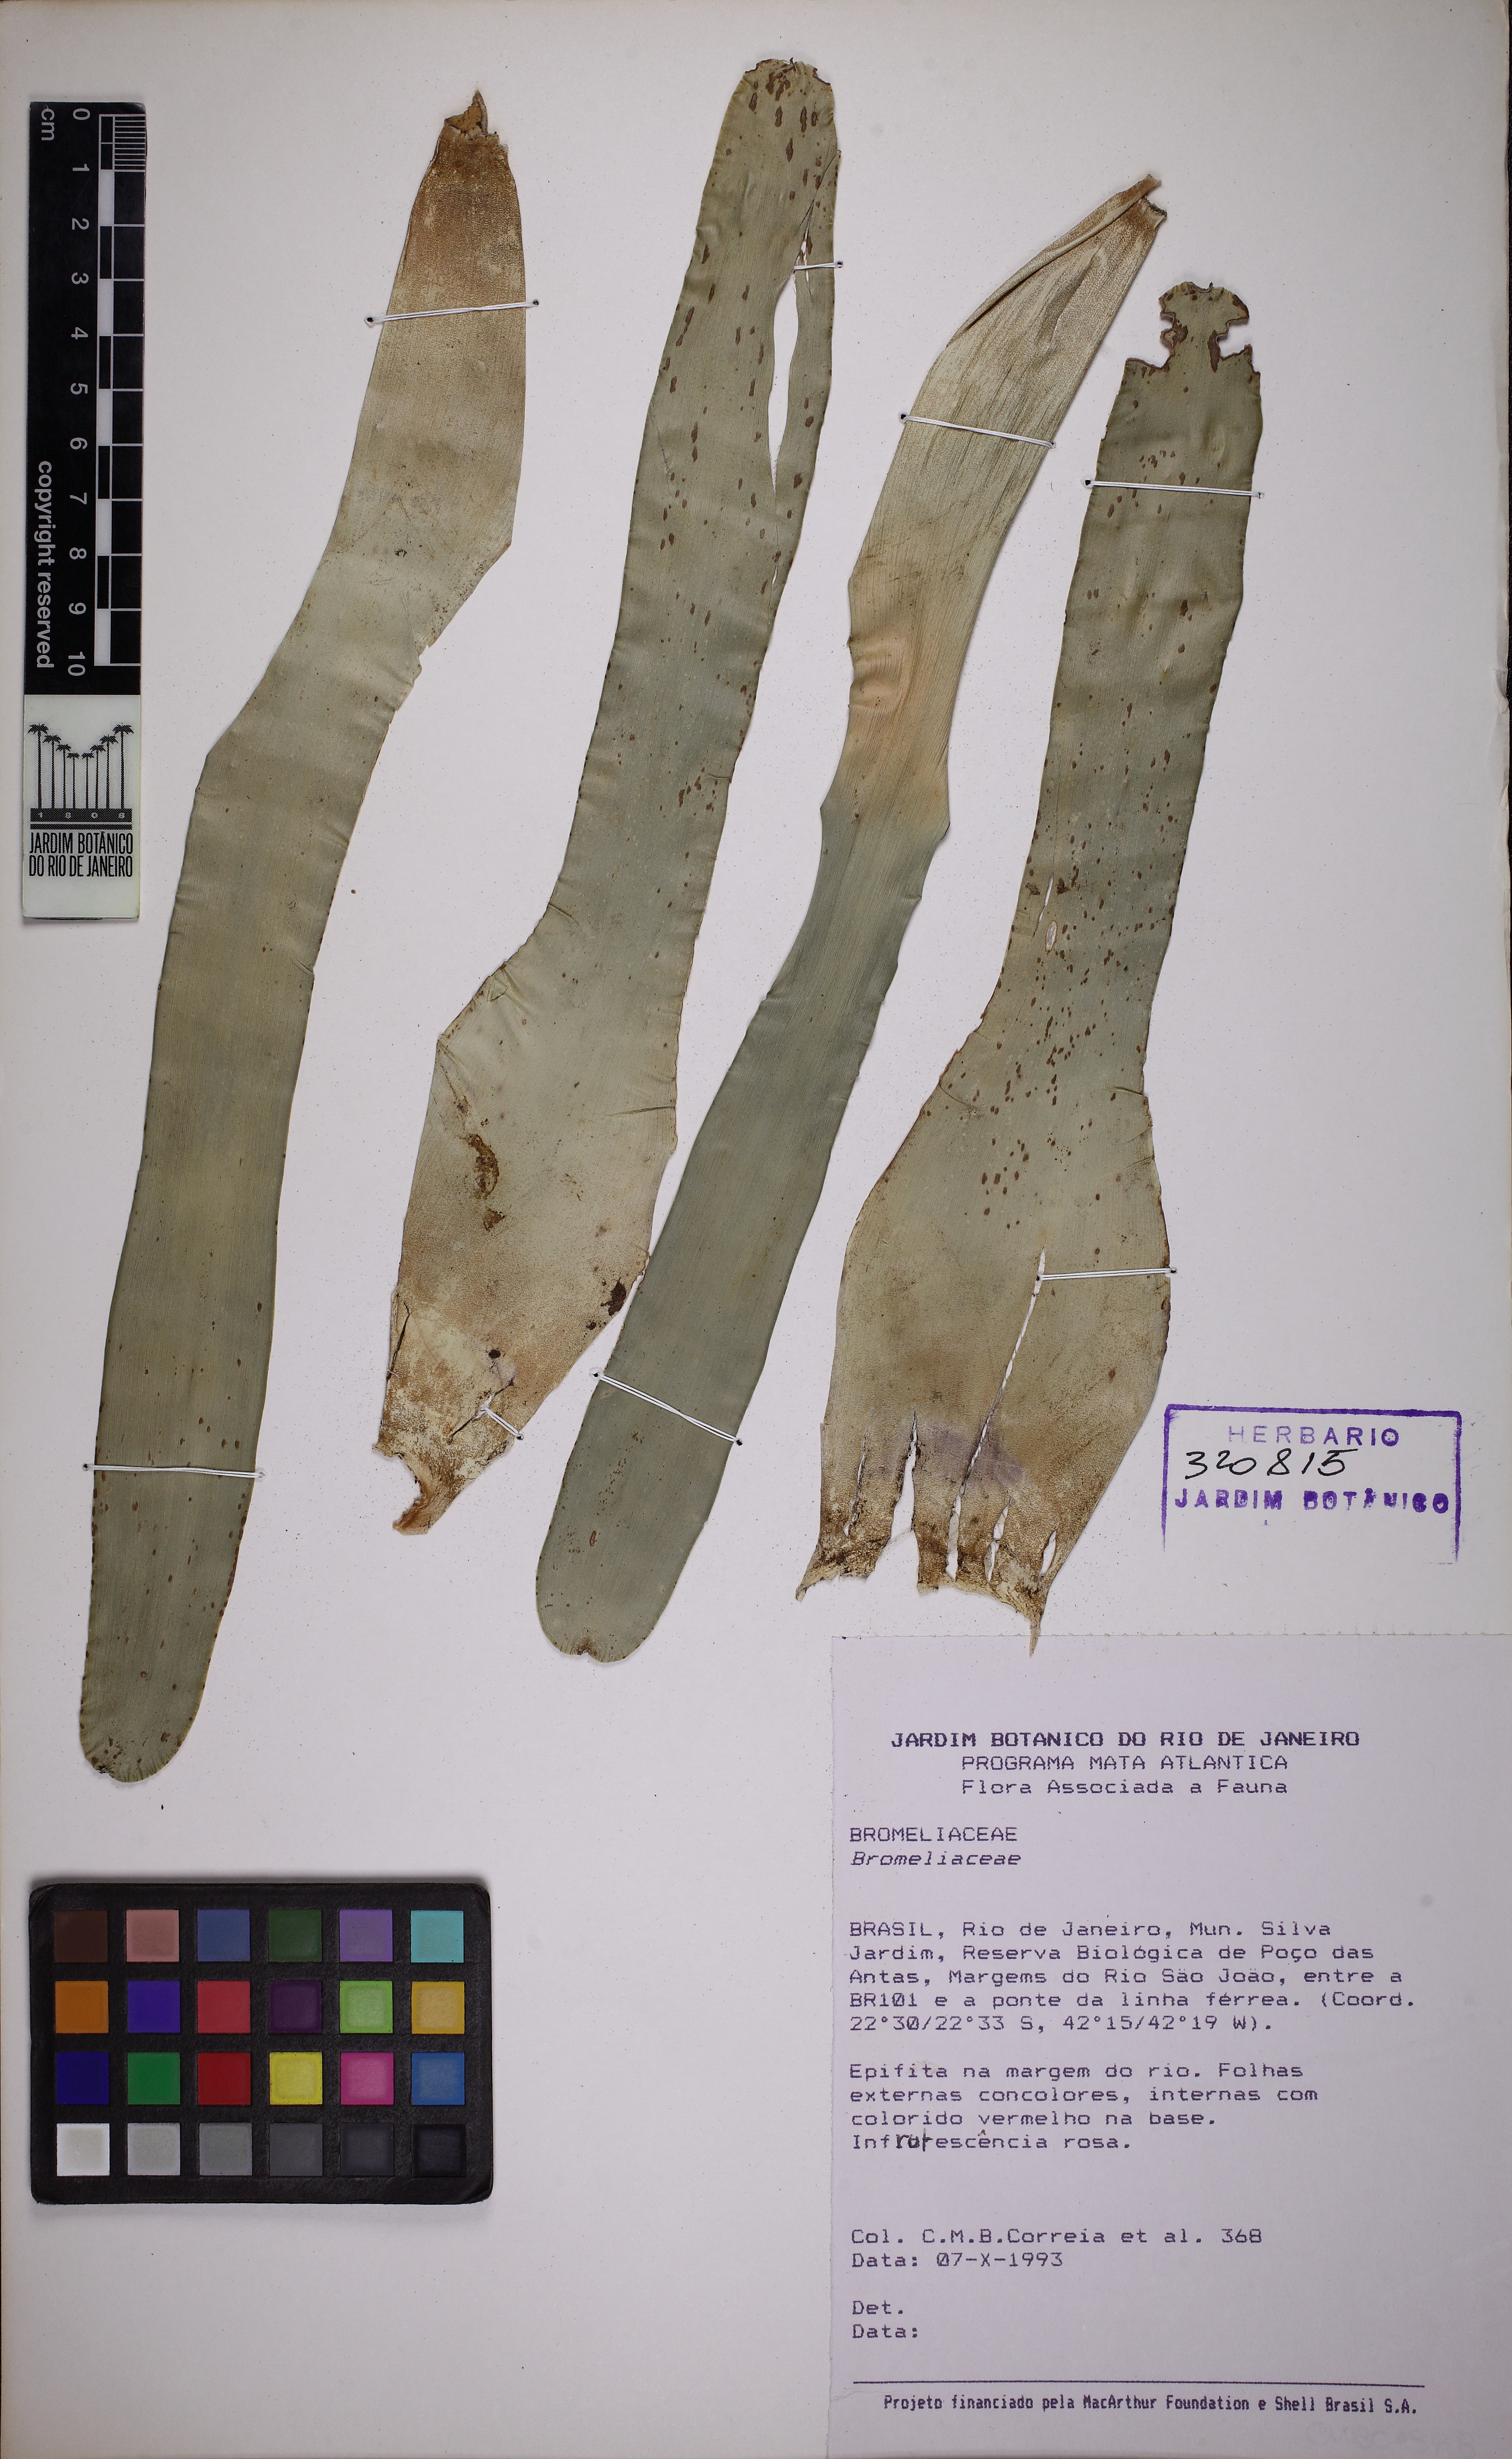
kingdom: Plantae
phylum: Tracheophyta
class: Liliopsida
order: Poales
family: Bromeliaceae
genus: Neoregelia
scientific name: Neoregelia laevis
